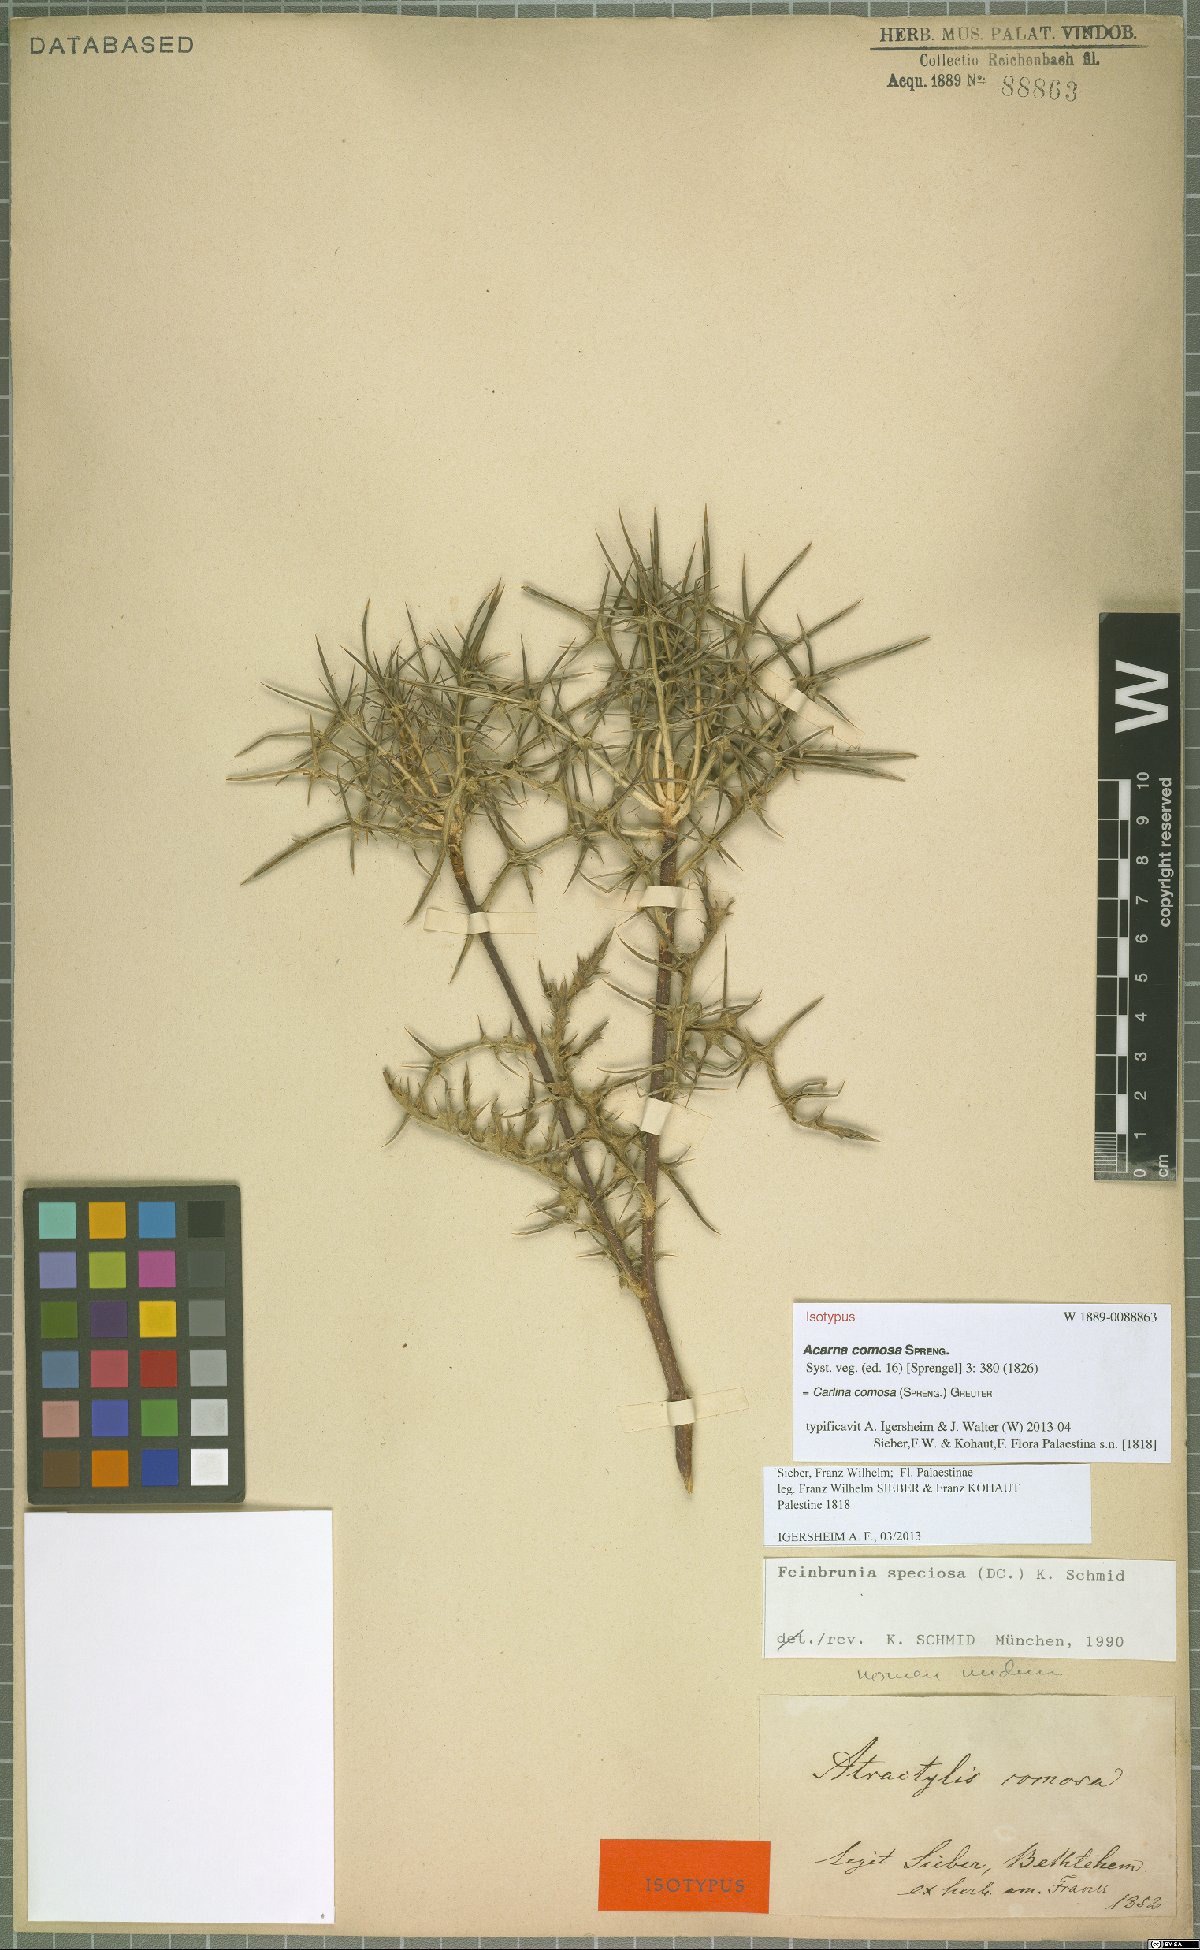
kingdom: Plantae
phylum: Tracheophyta
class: Magnoliopsida
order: Asterales
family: Asteraceae
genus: Chamaeleon
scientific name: Chamaeleon comosus
